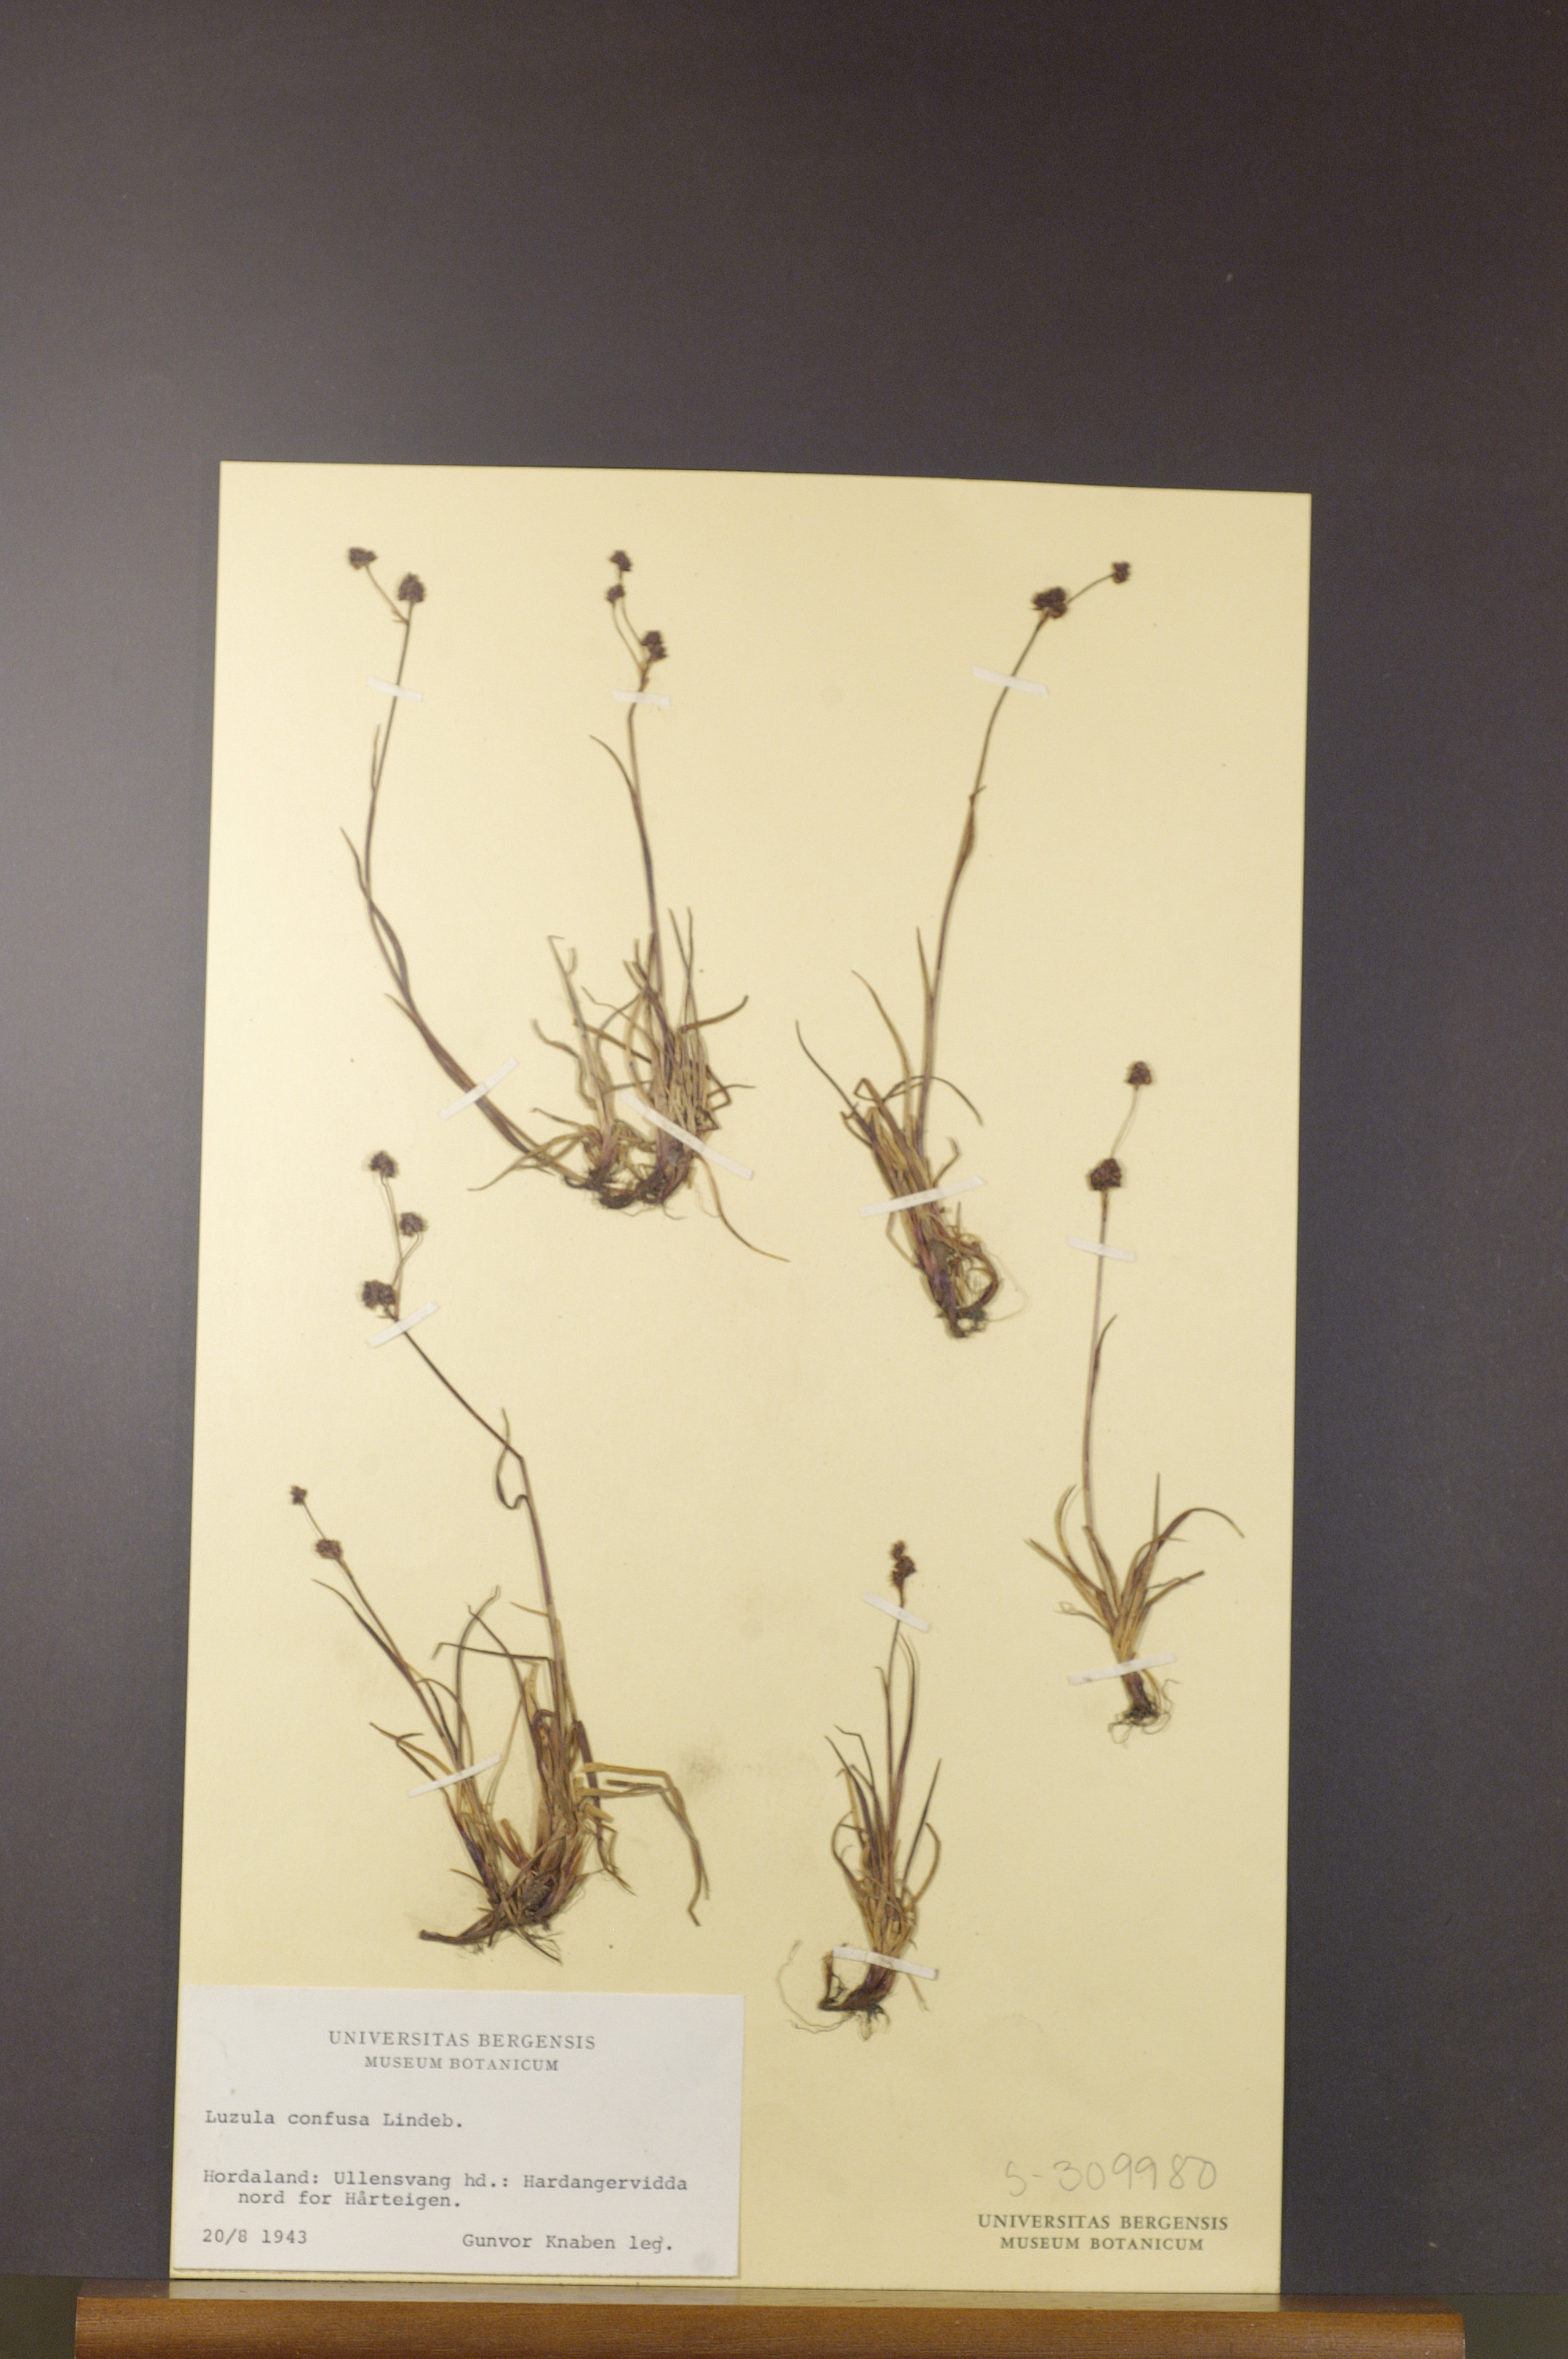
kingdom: Plantae
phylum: Tracheophyta
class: Liliopsida
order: Poales
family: Juncaceae
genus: Luzula
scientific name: Luzula confusa
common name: Northern wood rush
